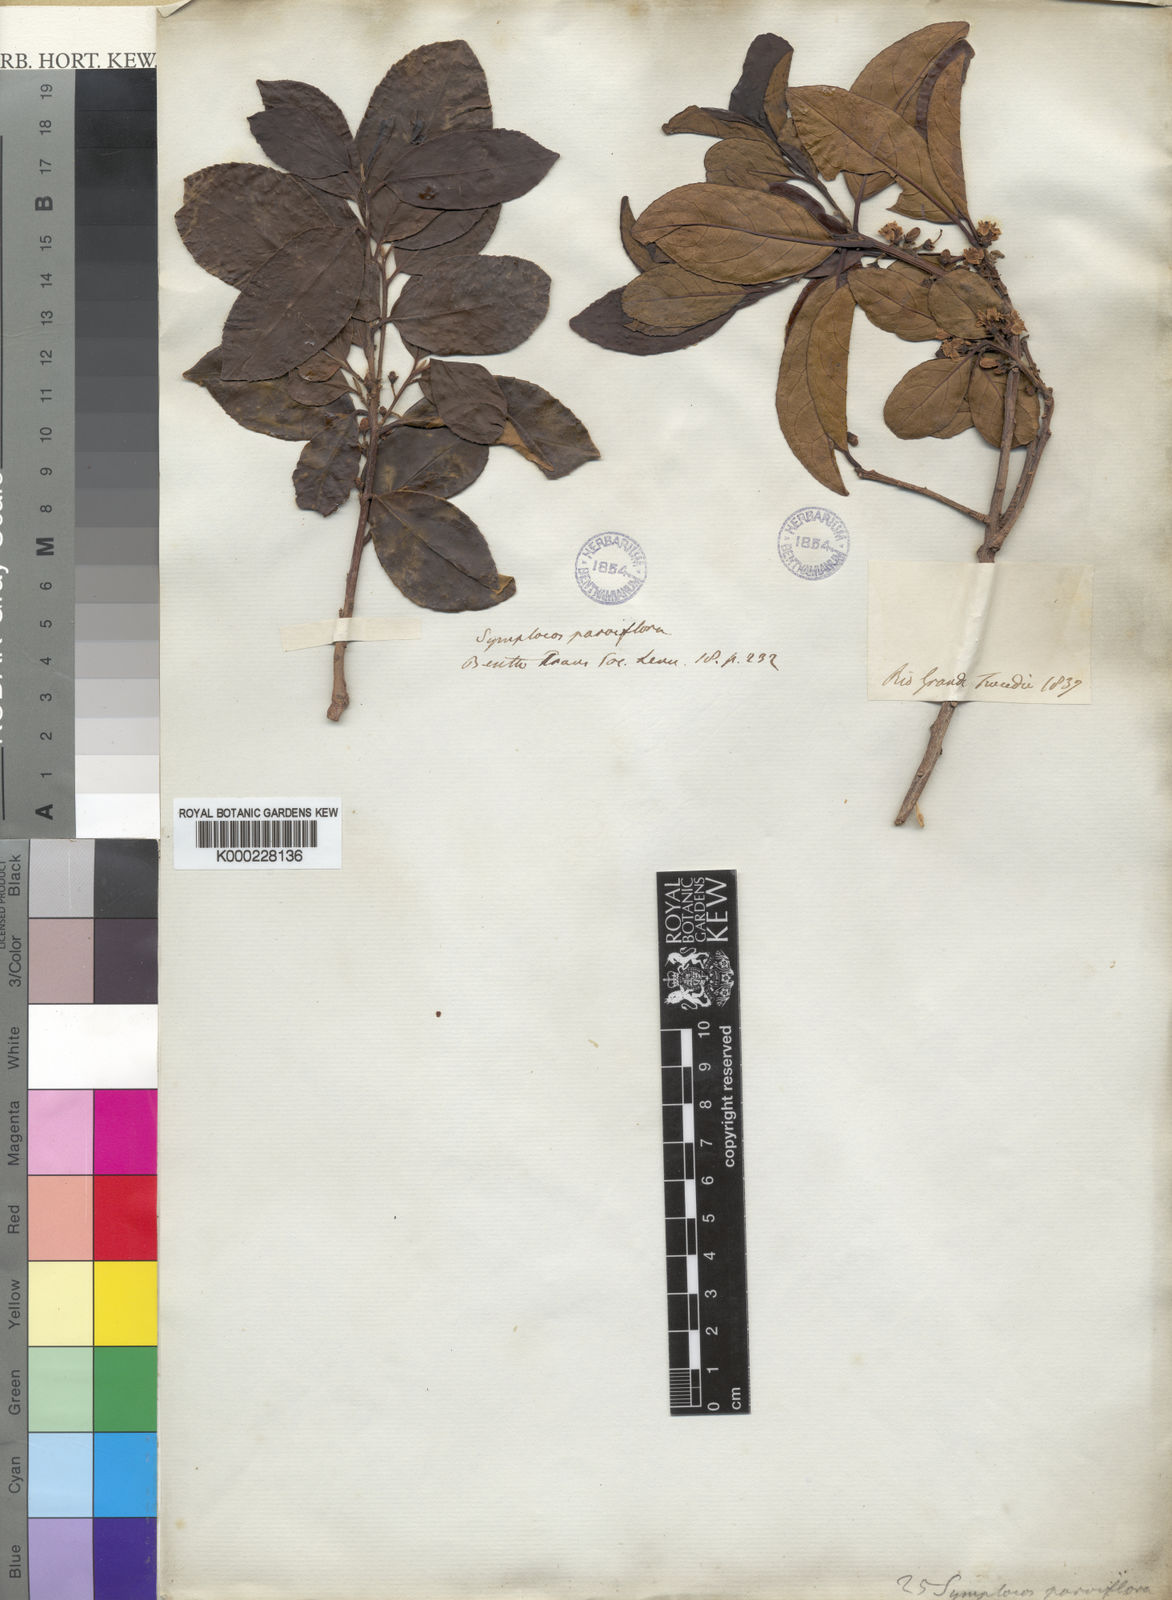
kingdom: Plantae
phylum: Tracheophyta
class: Magnoliopsida
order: Ericales
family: Symplocaceae
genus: Symplocos
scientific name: Symplocos uniflora
